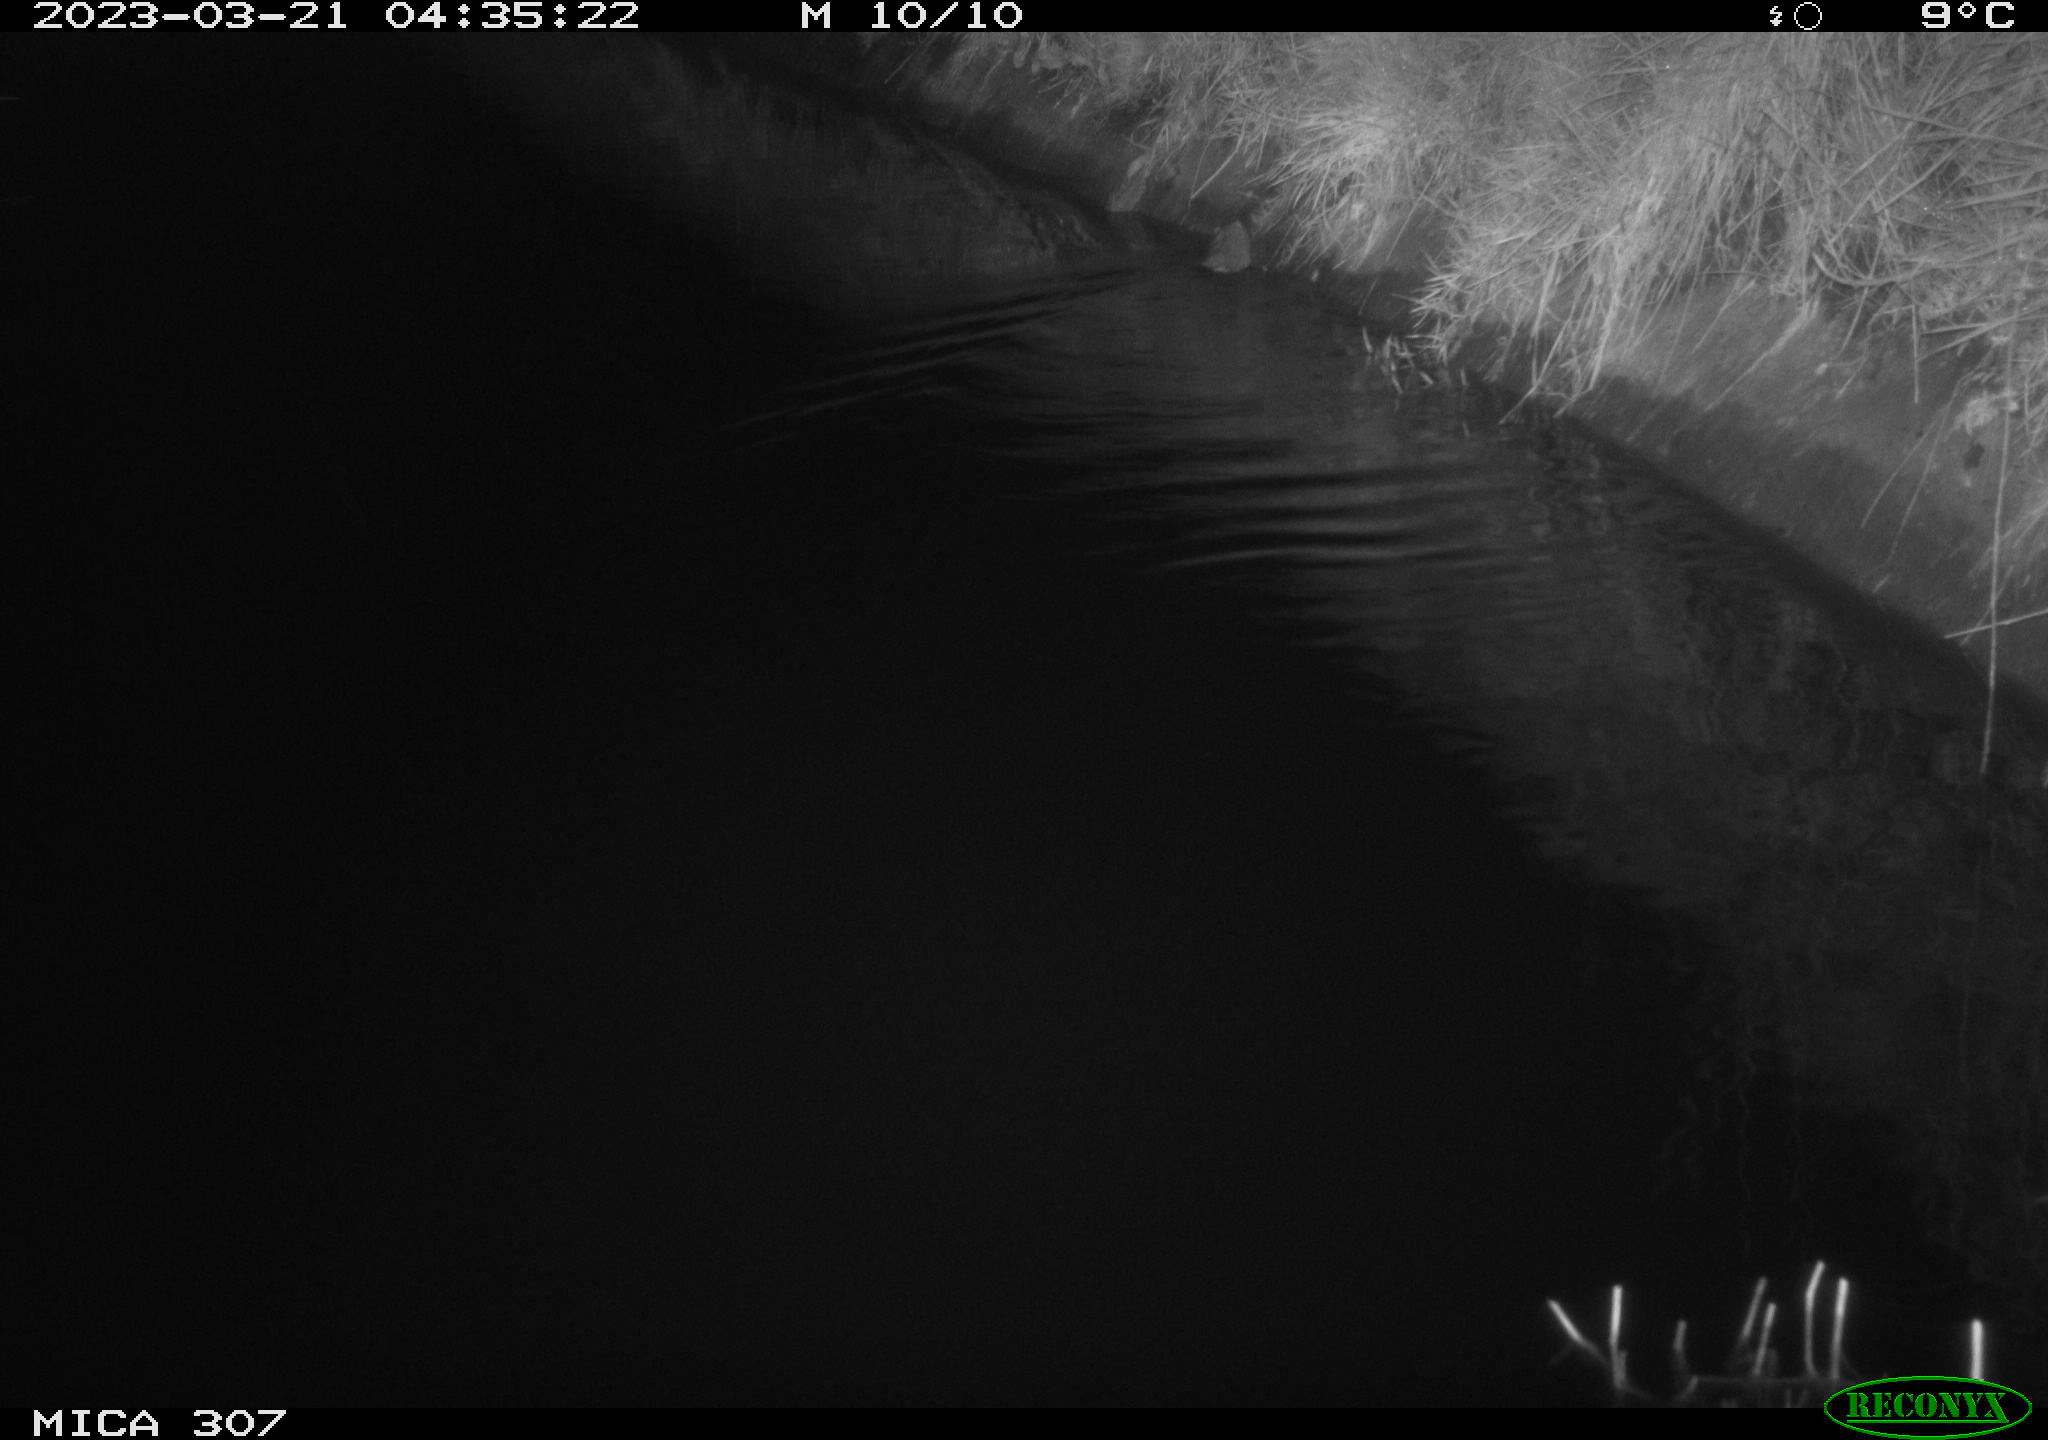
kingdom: Animalia
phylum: Chordata
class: Mammalia
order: Rodentia
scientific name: Rodentia
